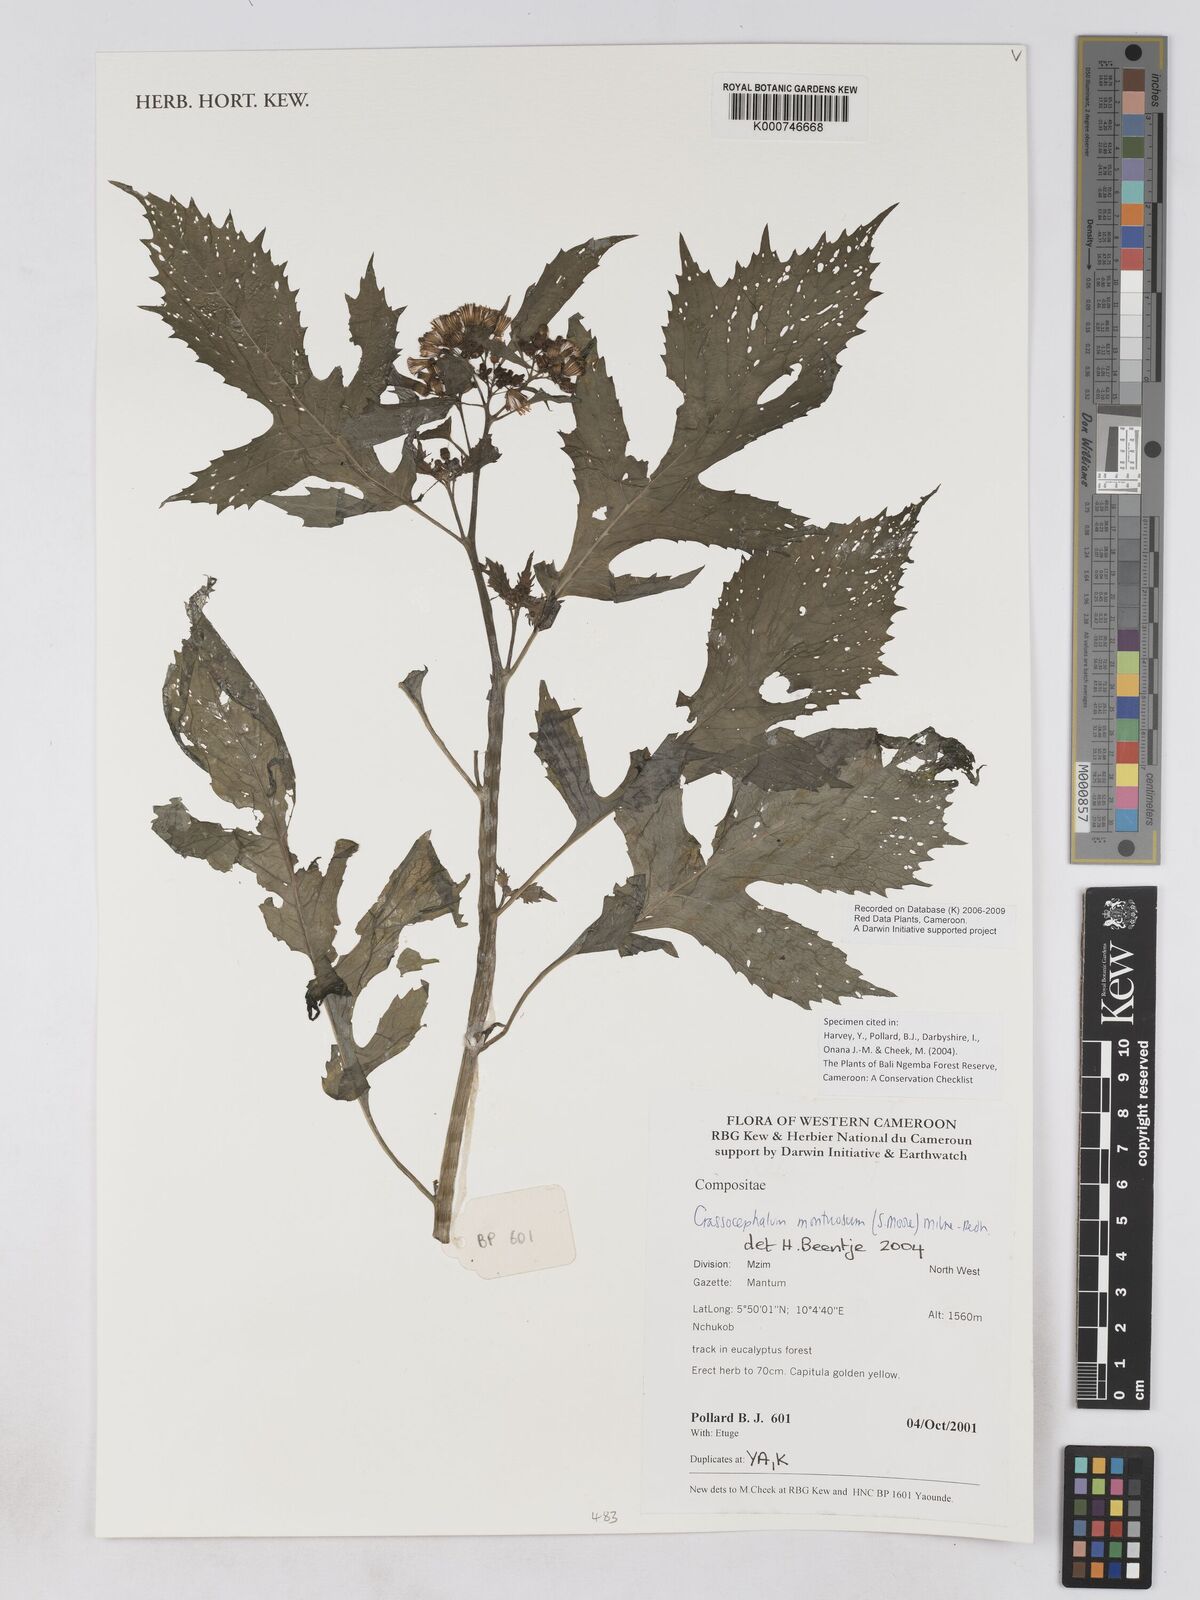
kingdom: Plantae
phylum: Tracheophyta
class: Magnoliopsida
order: Asterales
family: Asteraceae
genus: Crassocephalum
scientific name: Crassocephalum montuosum
